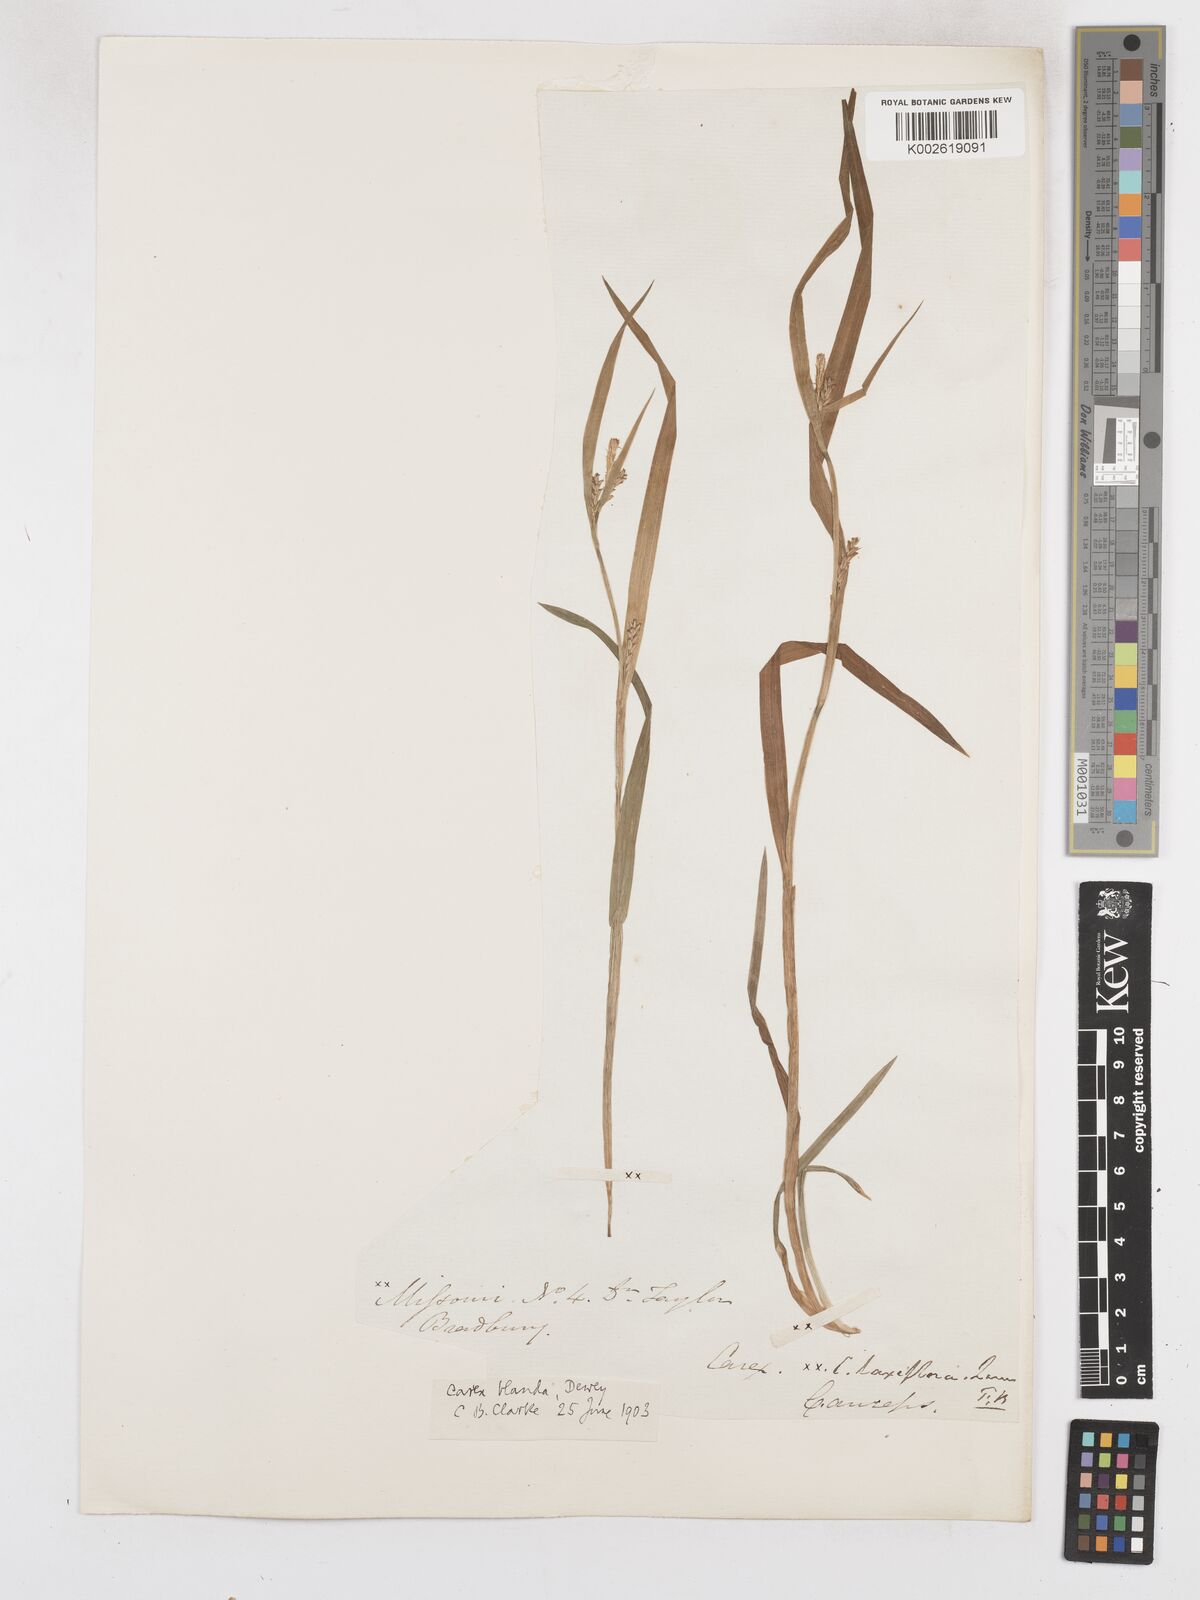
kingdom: Plantae
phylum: Tracheophyta
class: Liliopsida
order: Poales
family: Cyperaceae
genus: Carex
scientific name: Carex blanda
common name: Bland sedge
